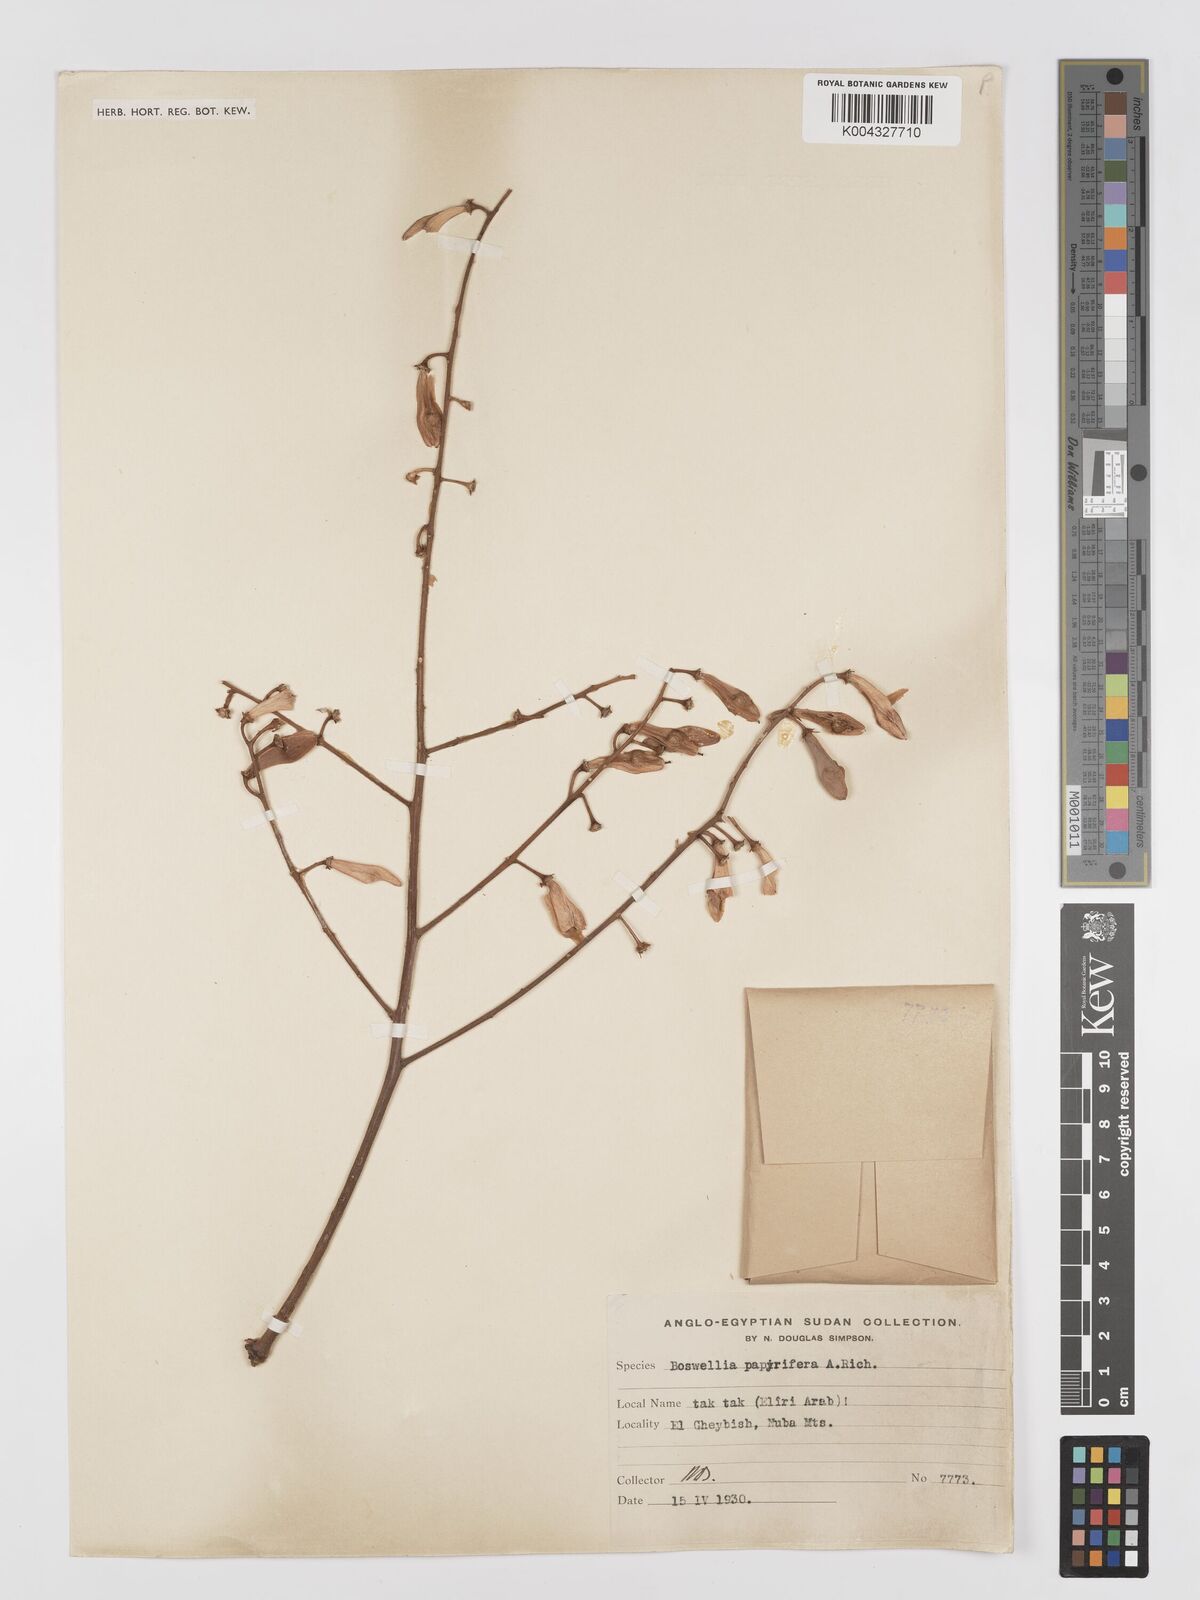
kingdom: Plantae
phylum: Tracheophyta
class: Magnoliopsida
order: Sapindales
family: Burseraceae
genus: Boswellia
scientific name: Boswellia papyrifera
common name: Sudanese frankincense
